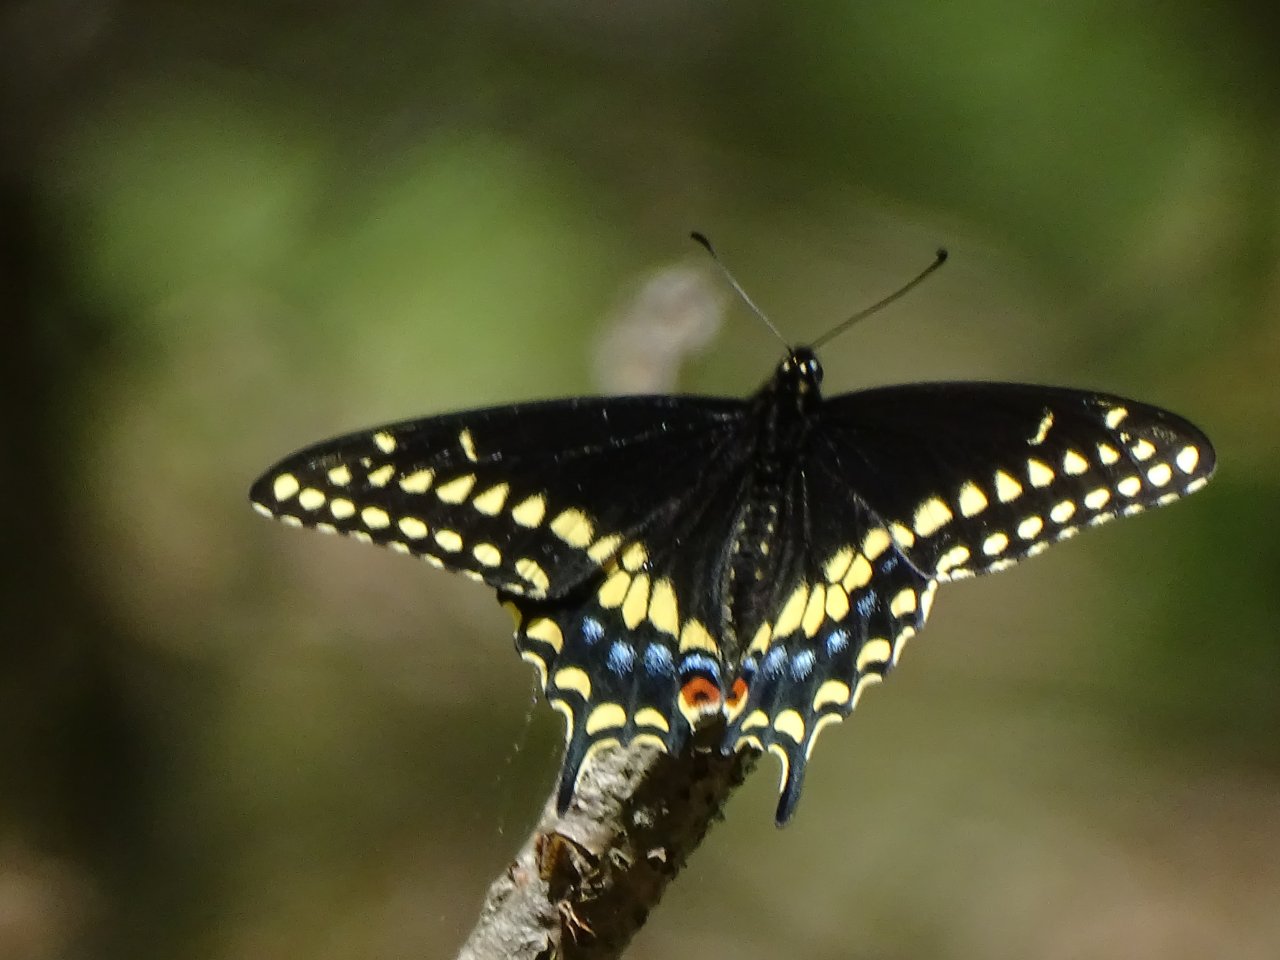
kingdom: Animalia
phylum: Arthropoda
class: Insecta
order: Lepidoptera
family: Papilionidae
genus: Papilio
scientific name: Papilio polyxenes
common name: Black Swallowtail
